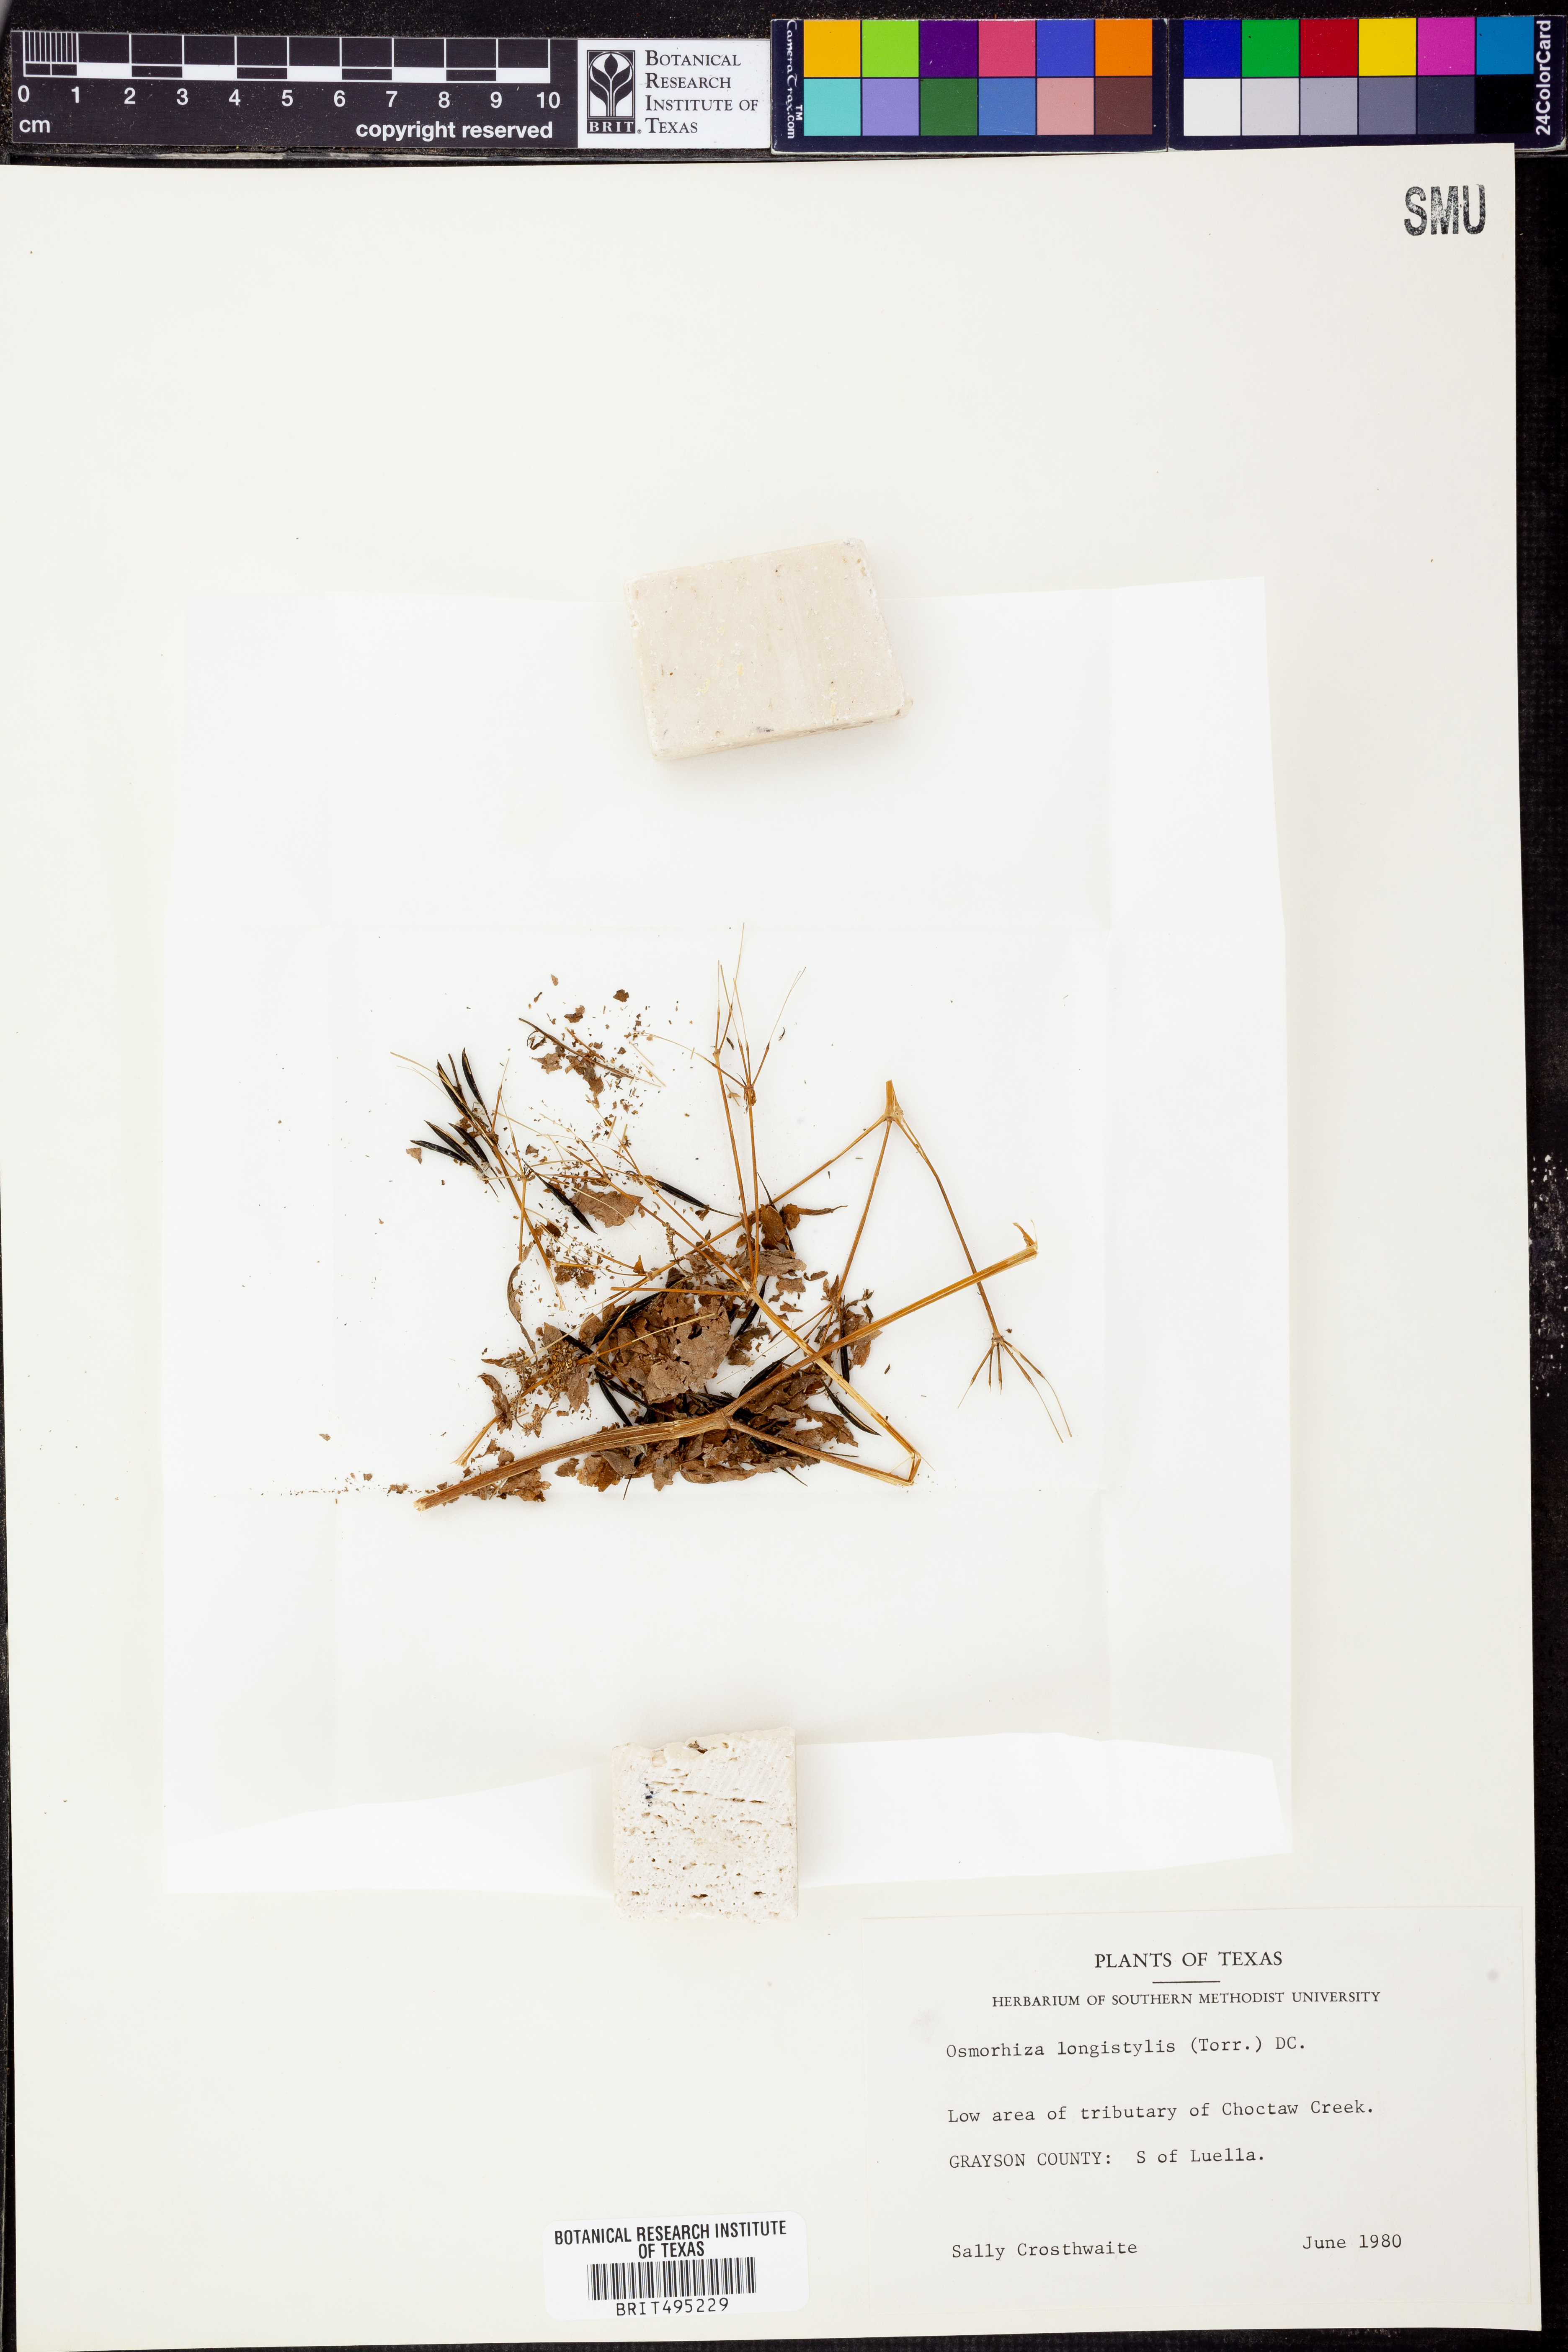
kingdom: Plantae
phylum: Tracheophyta
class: Magnoliopsida
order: Apiales
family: Apiaceae
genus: Osmorhiza
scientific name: Osmorhiza longistylis
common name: Smooth sweet cicely
